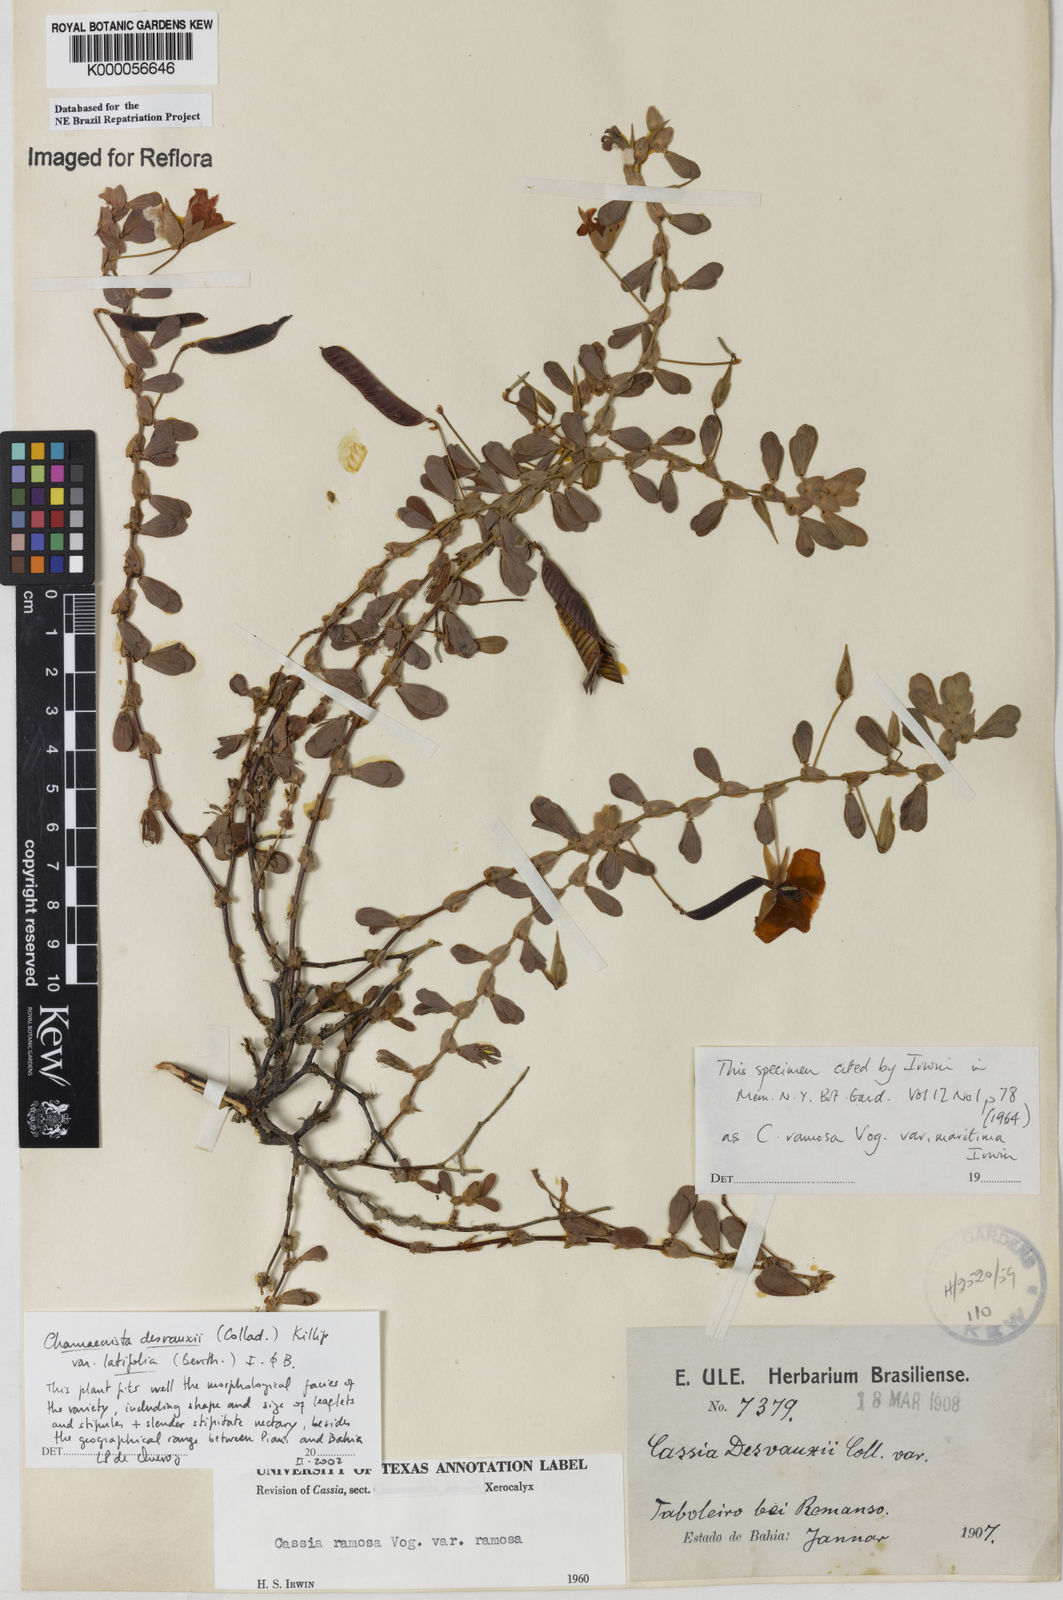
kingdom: Plantae
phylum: Tracheophyta
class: Magnoliopsida
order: Fabales
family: Fabaceae
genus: Chamaecrista
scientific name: Chamaecrista desvauxii
